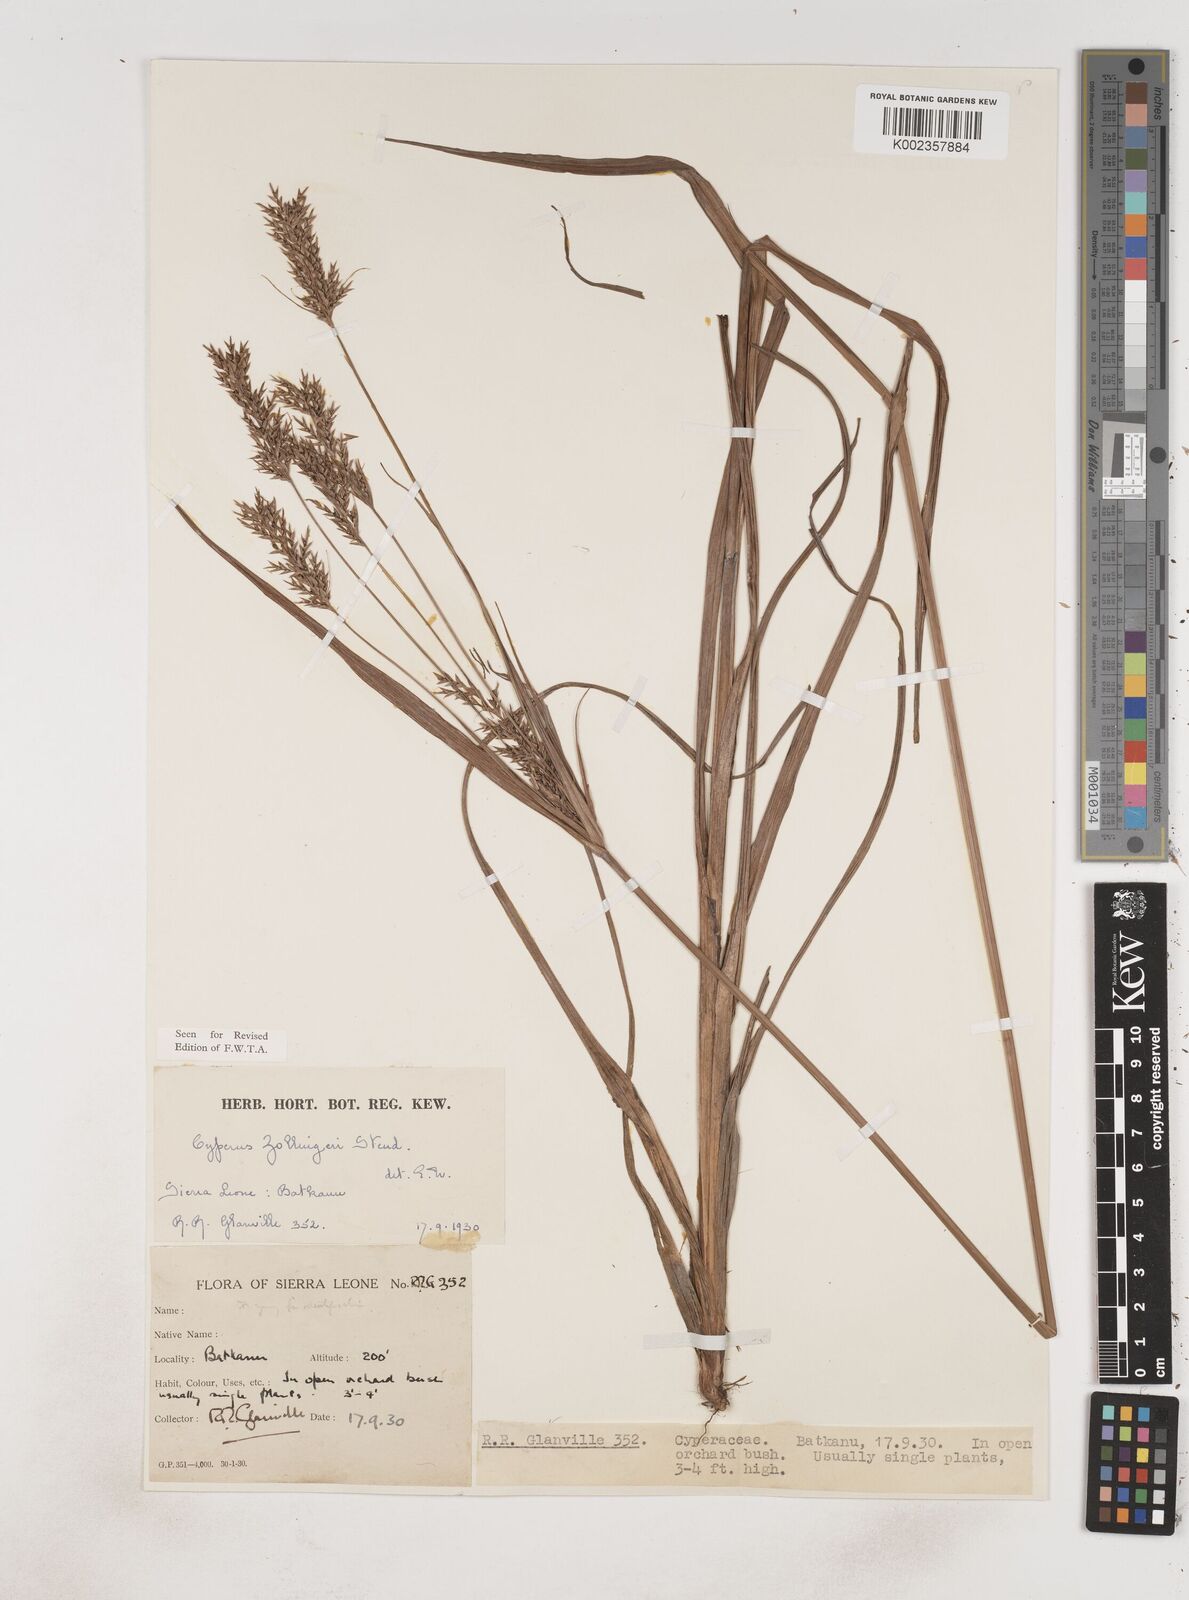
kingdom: Plantae
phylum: Tracheophyta
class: Liliopsida
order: Poales
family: Cyperaceae
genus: Cyperus
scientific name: Cyperus
